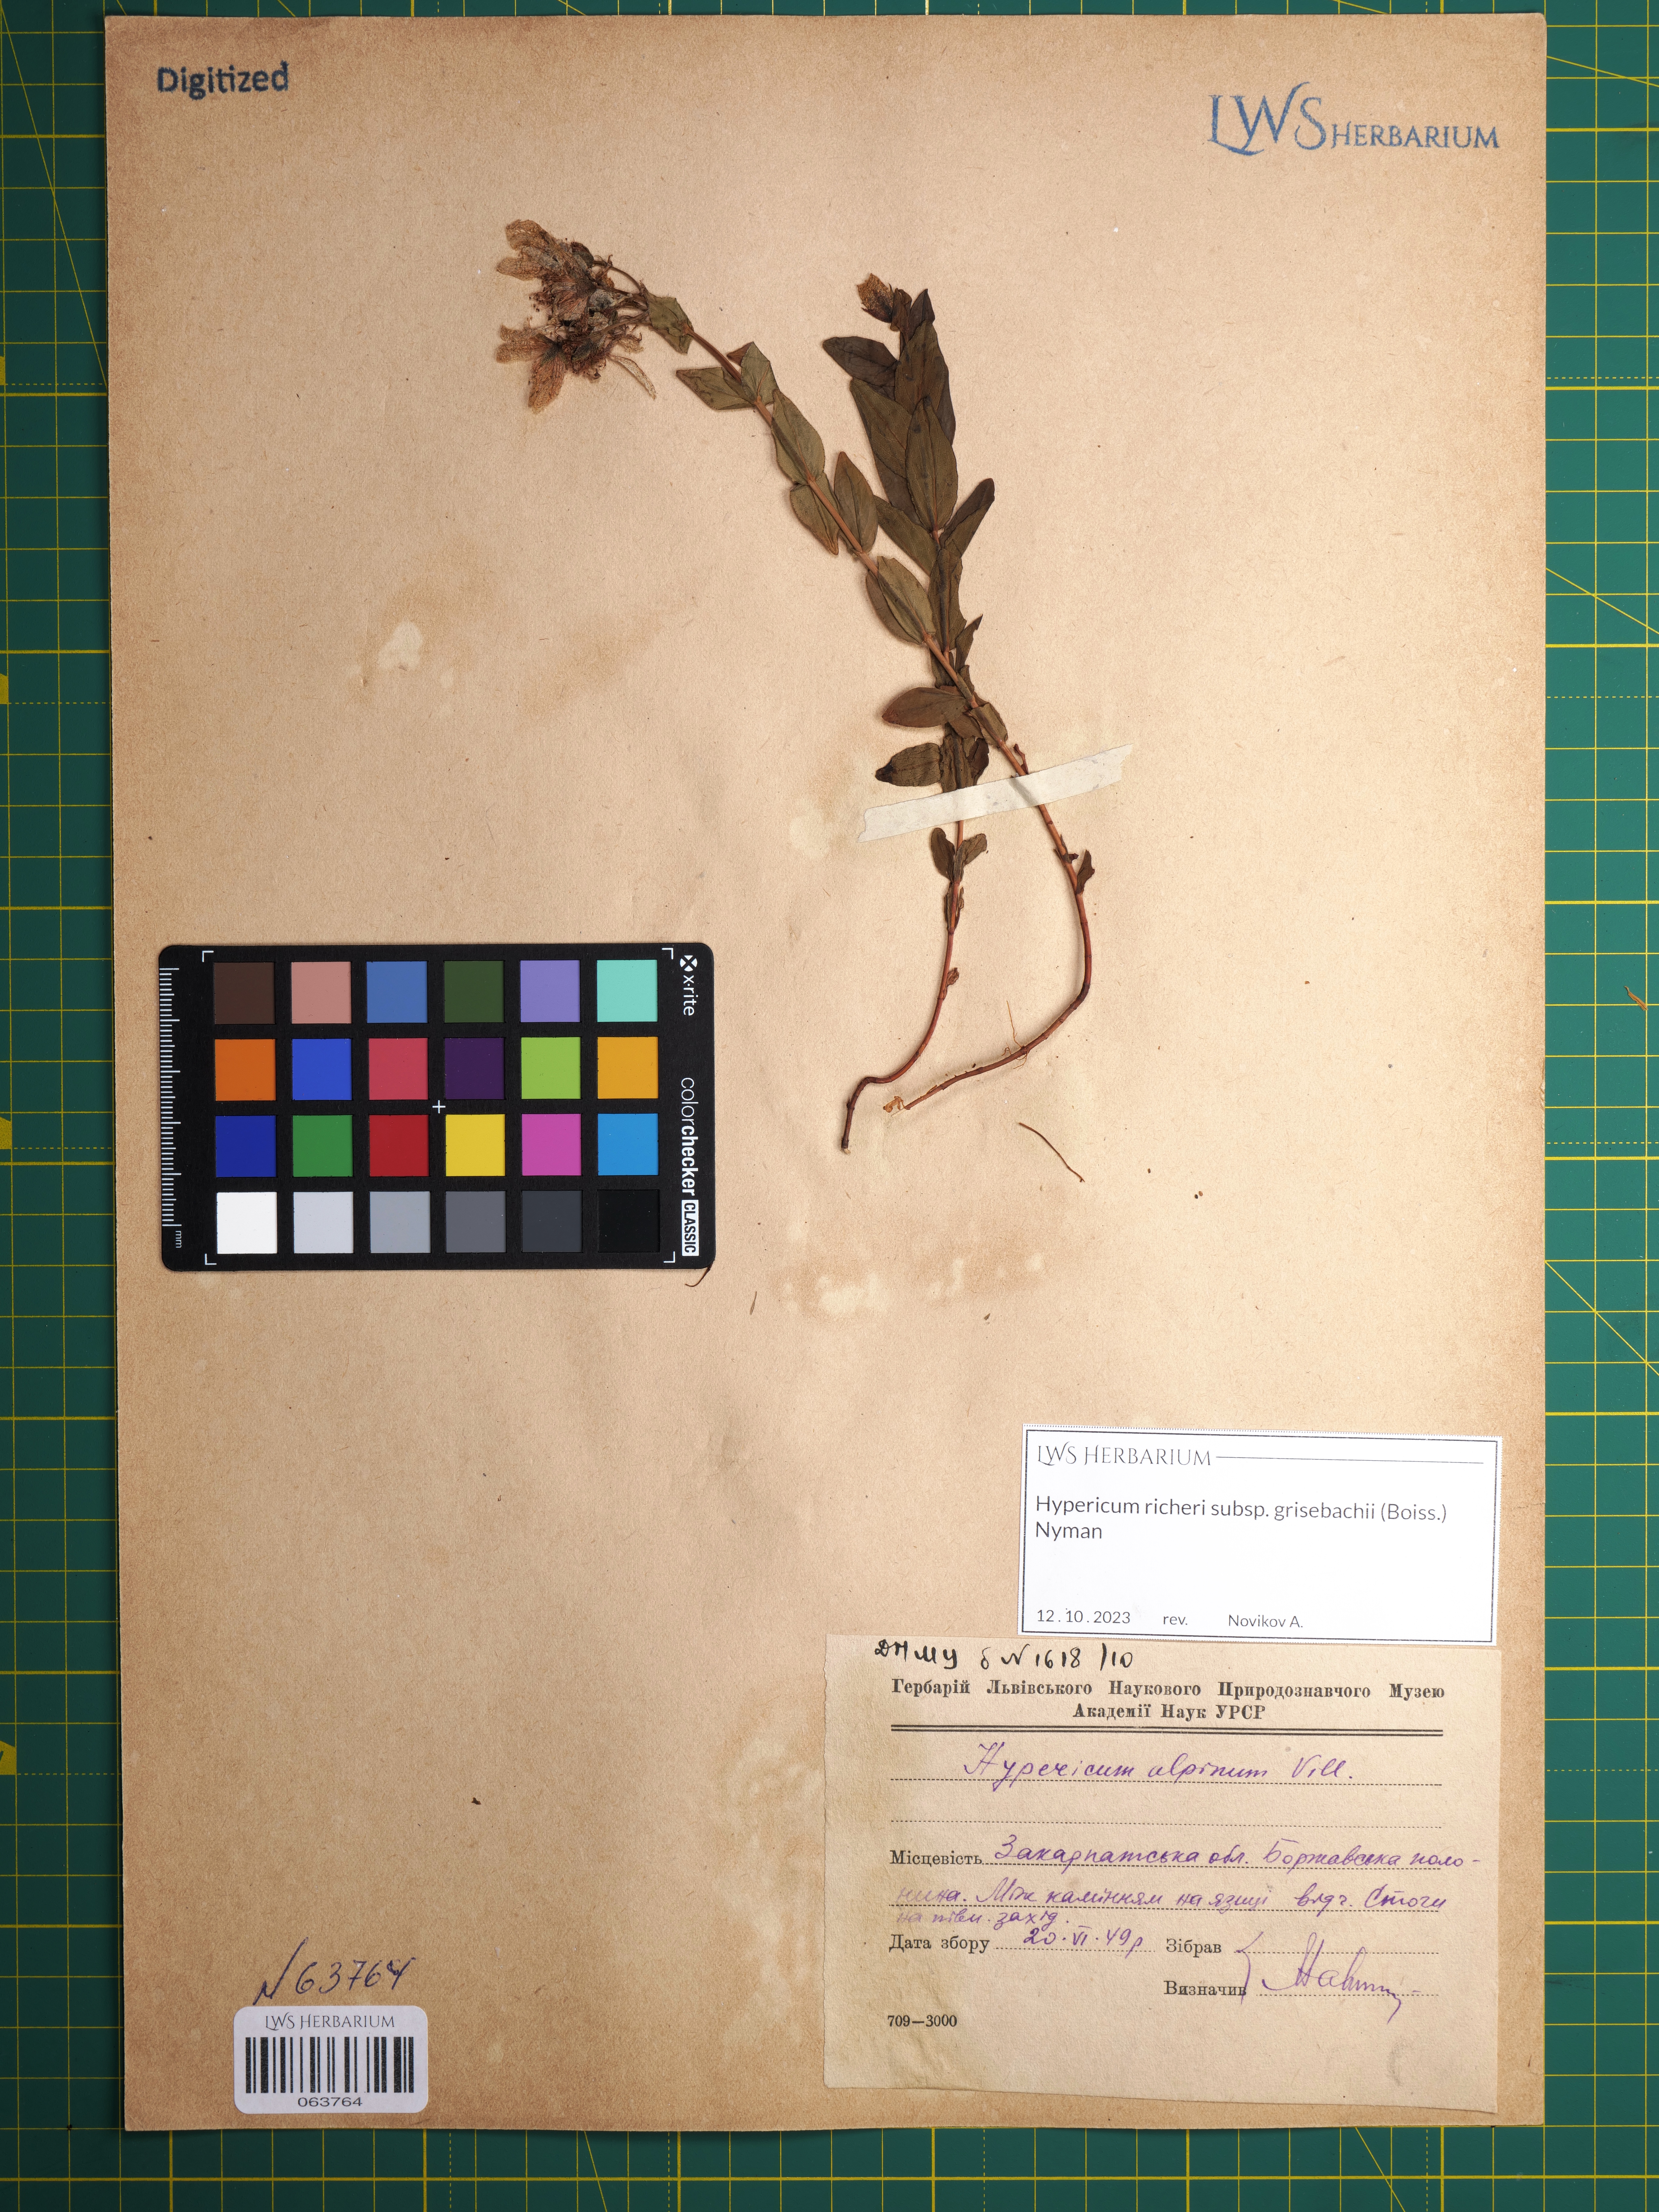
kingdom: Plantae
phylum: Tracheophyta
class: Magnoliopsida
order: Malpighiales
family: Hypericaceae
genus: Hypericum
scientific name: Hypericum richeri
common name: Alpine st john's-wort
